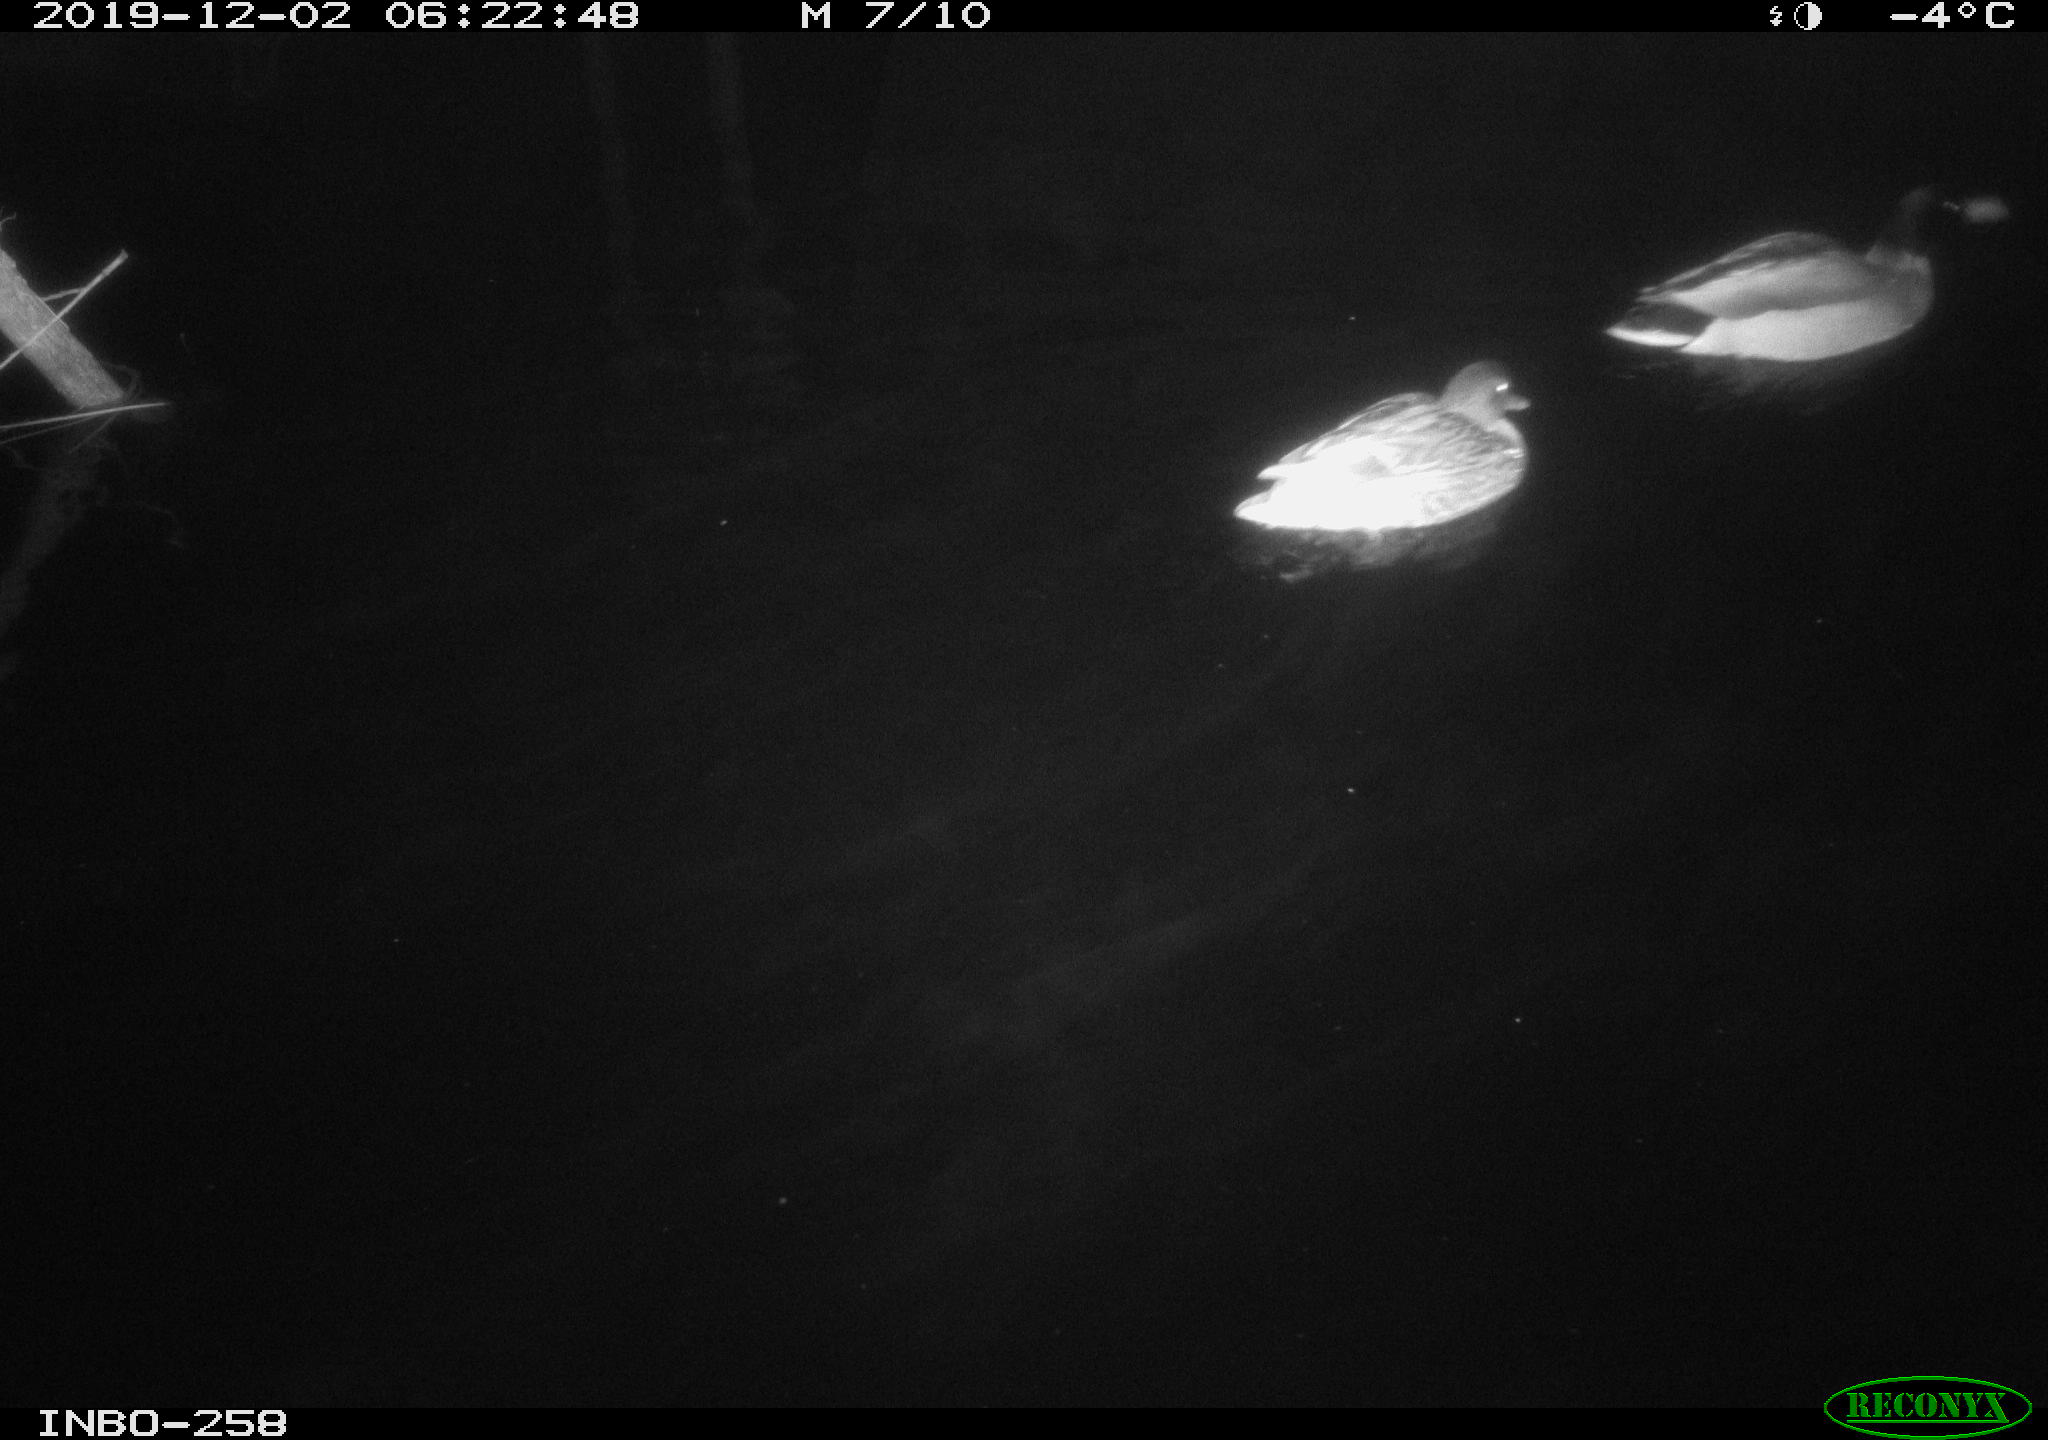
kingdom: Animalia
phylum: Chordata
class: Aves
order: Anseriformes
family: Anatidae
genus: Anas
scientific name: Anas platyrhynchos
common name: Mallard
